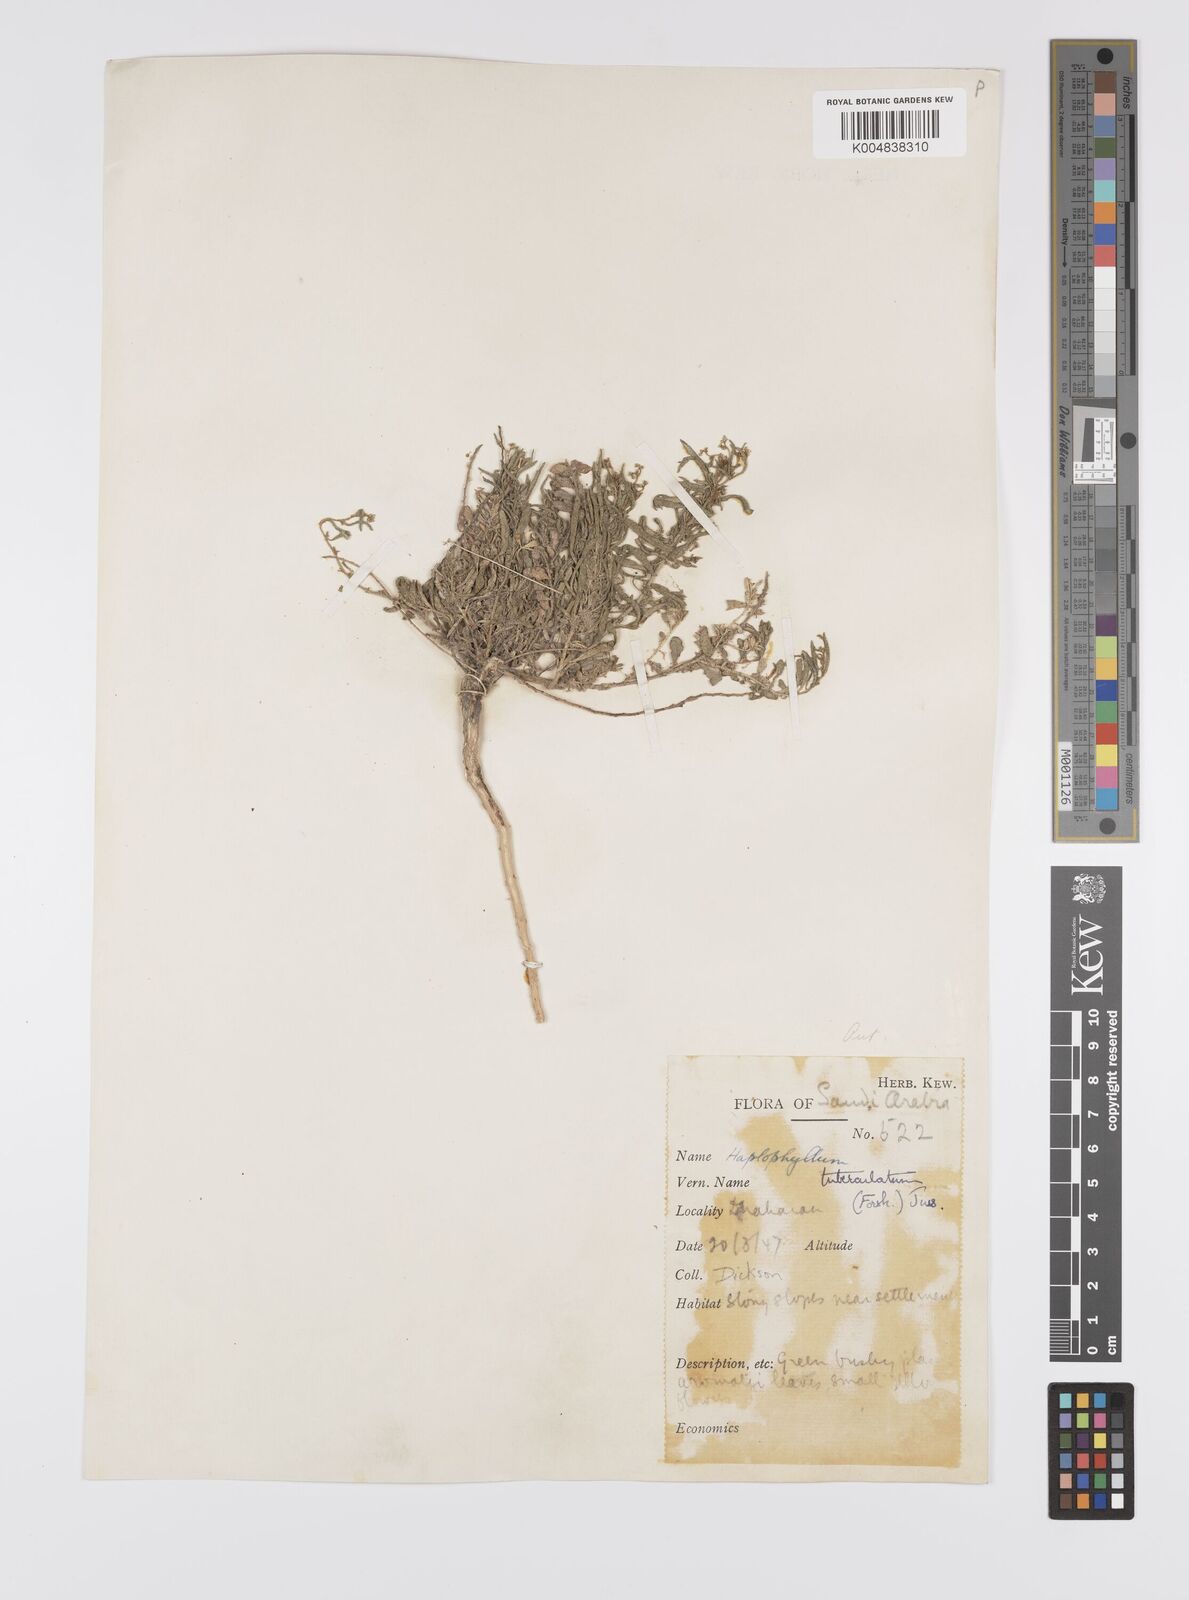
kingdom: Plantae
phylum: Tracheophyta
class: Magnoliopsida
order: Sapindales
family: Rutaceae
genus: Haplophyllum
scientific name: Haplophyllum tuberculatum
